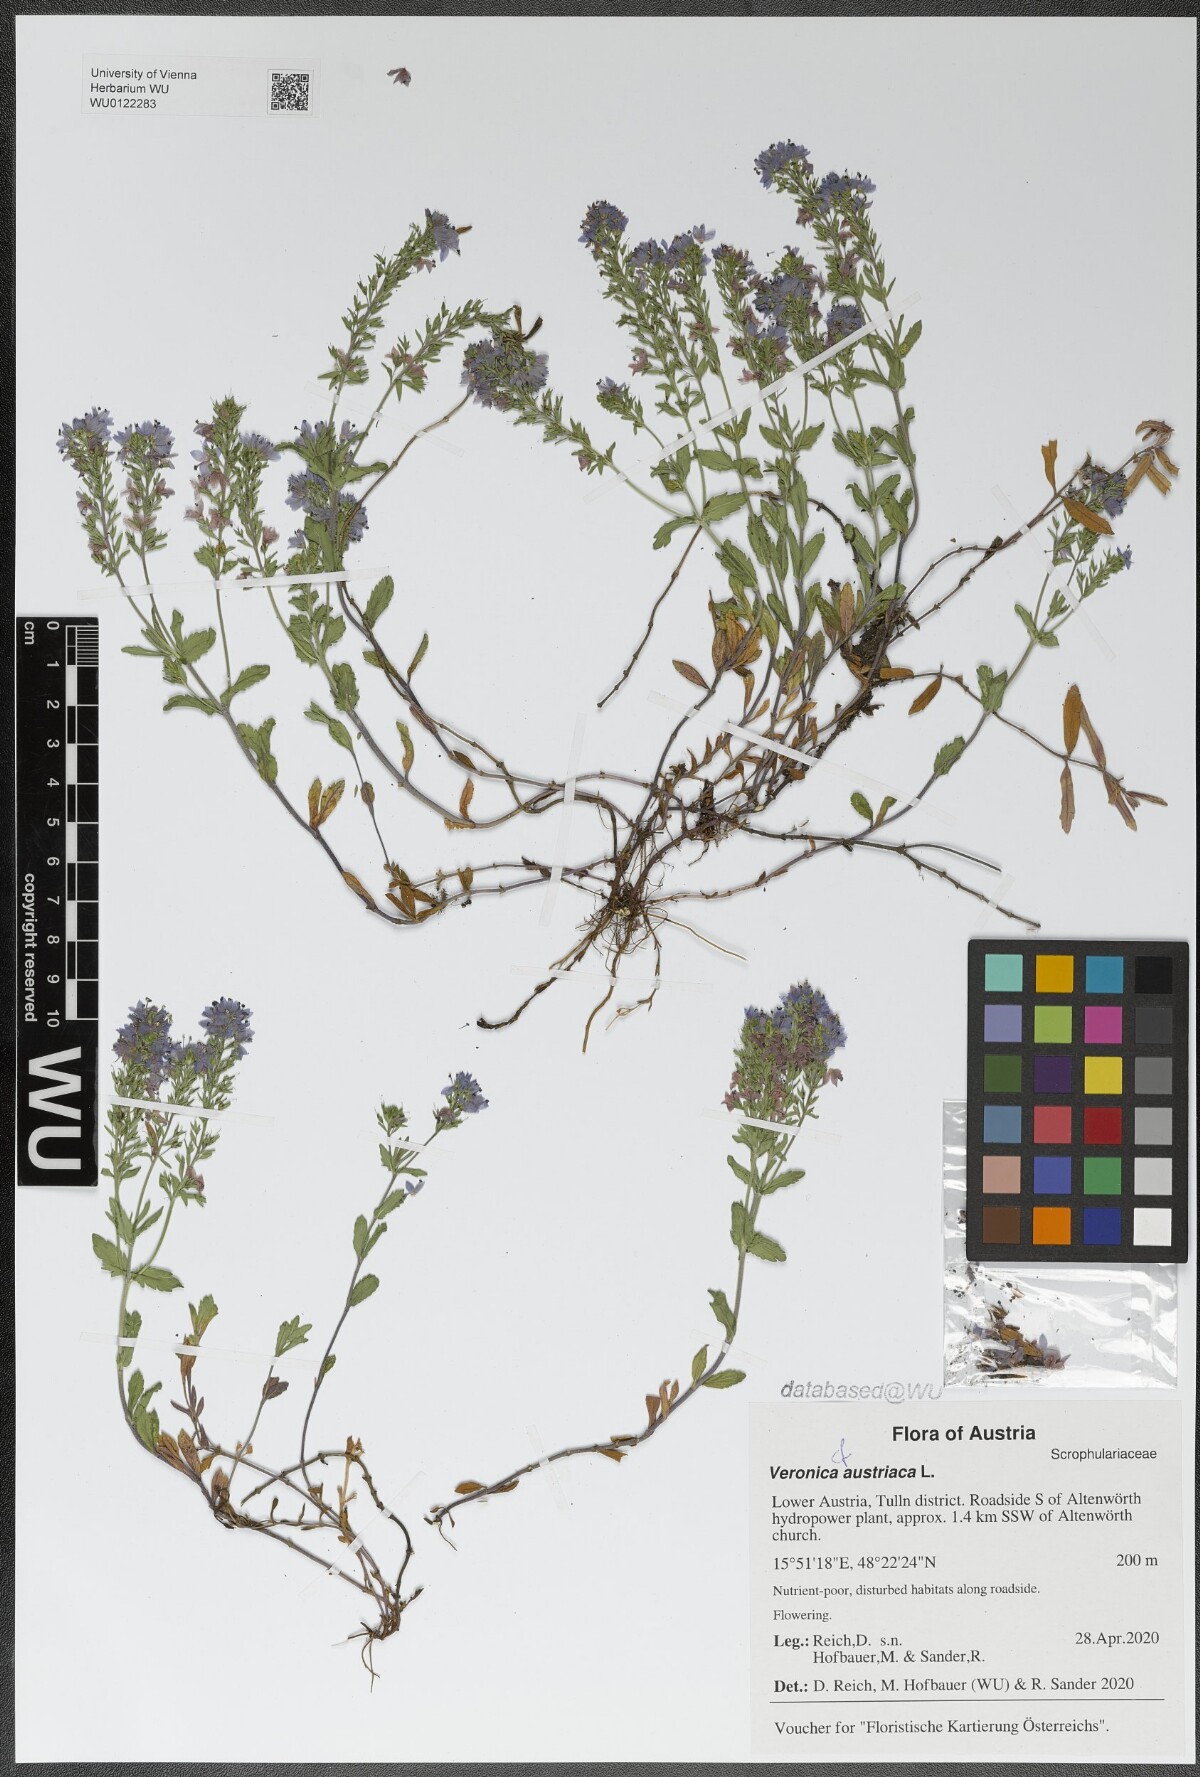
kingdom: Plantae
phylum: Tracheophyta
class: Magnoliopsida
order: Lamiales
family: Plantaginaceae
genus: Veronica
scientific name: Veronica austriaca
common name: Large speedwell
